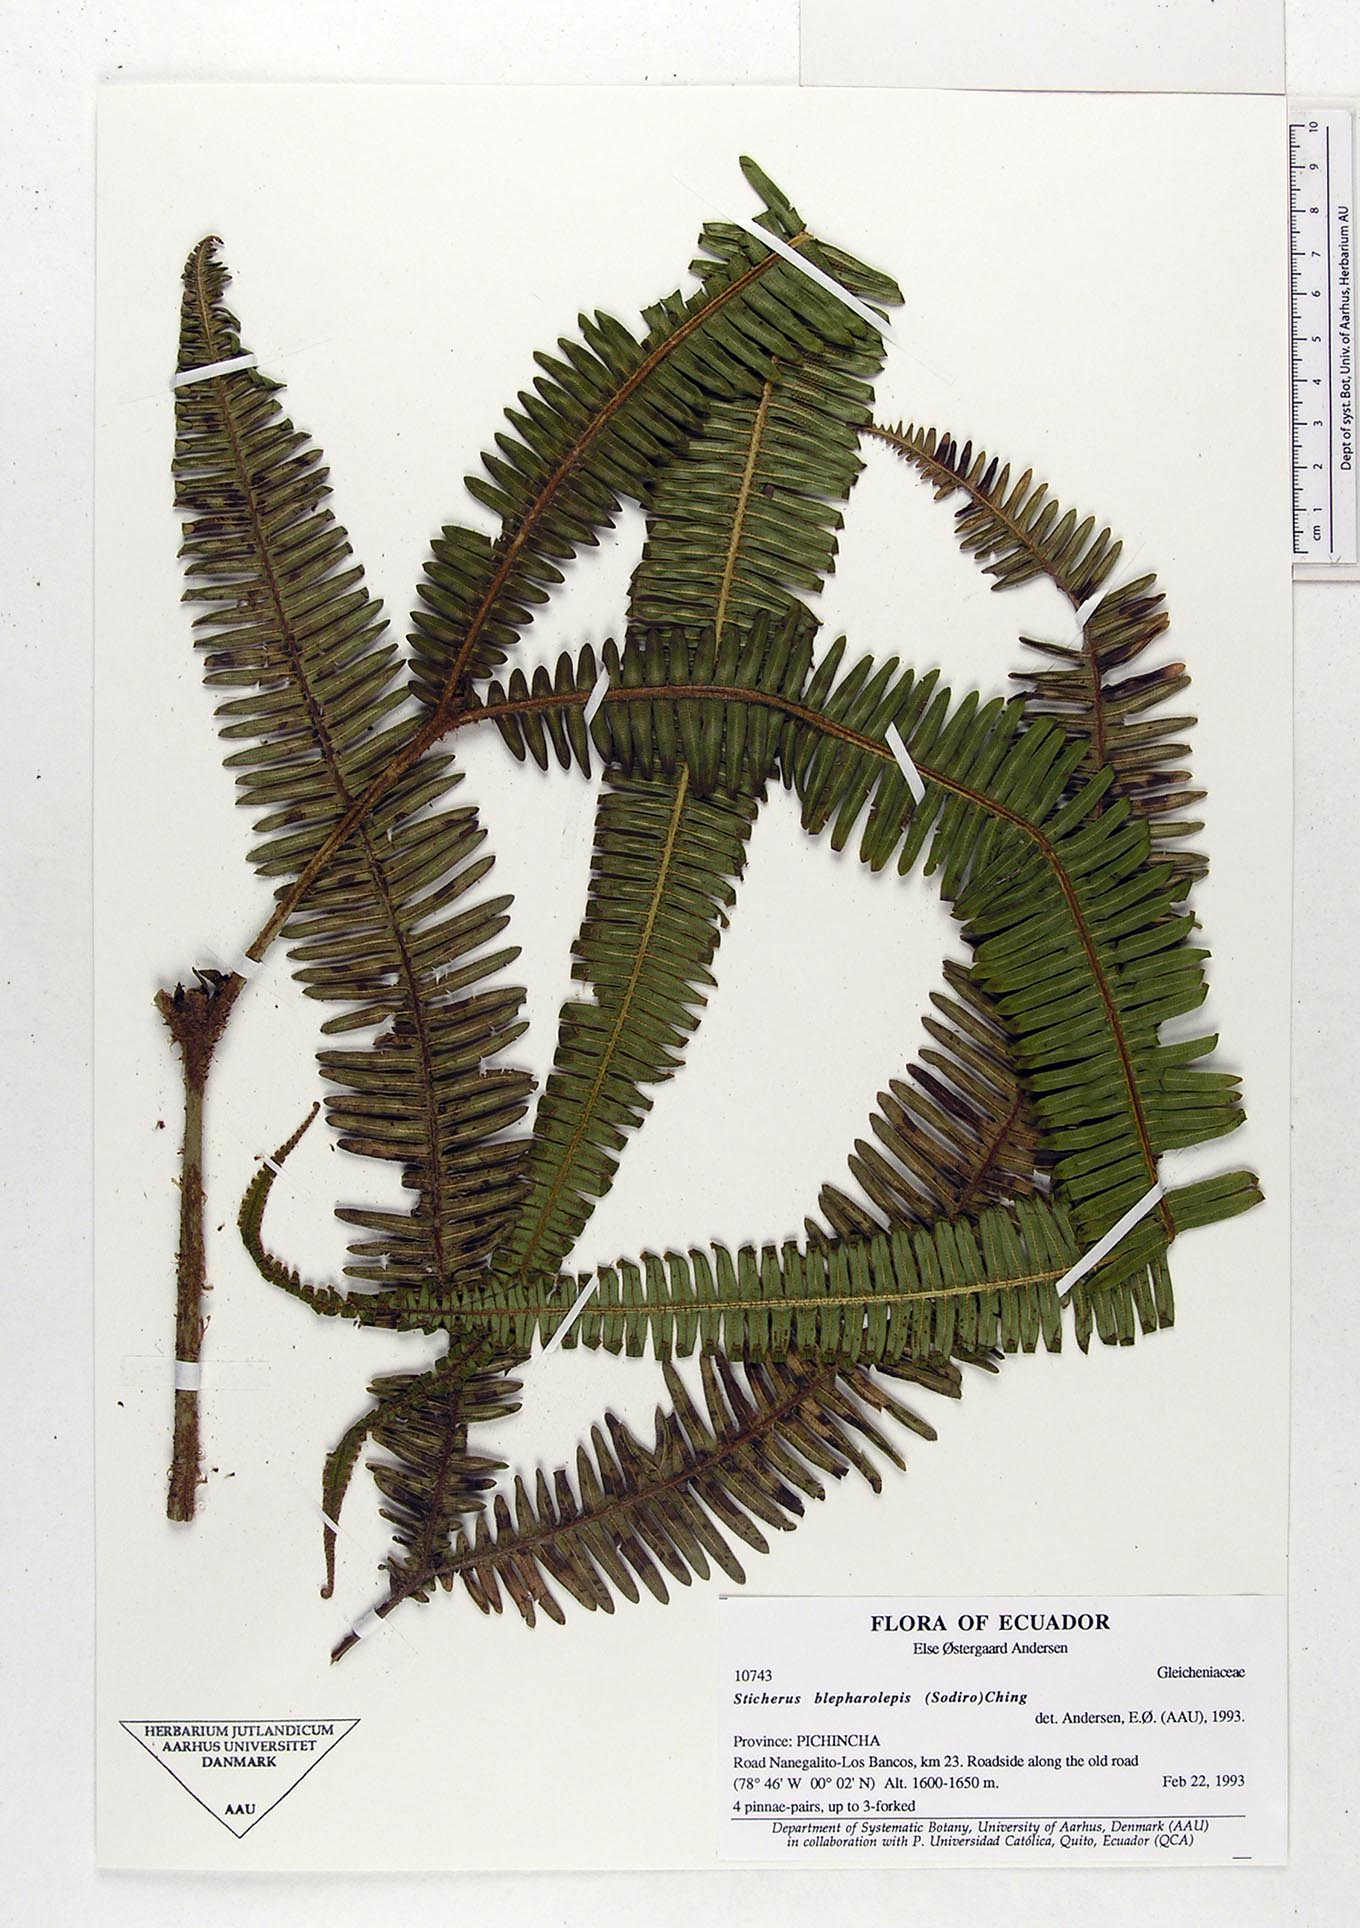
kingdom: Plantae
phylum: Tracheophyta
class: Polypodiopsida
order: Gleicheniales
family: Gleicheniaceae
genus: Sticherus
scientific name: Sticherus blepharolepis
